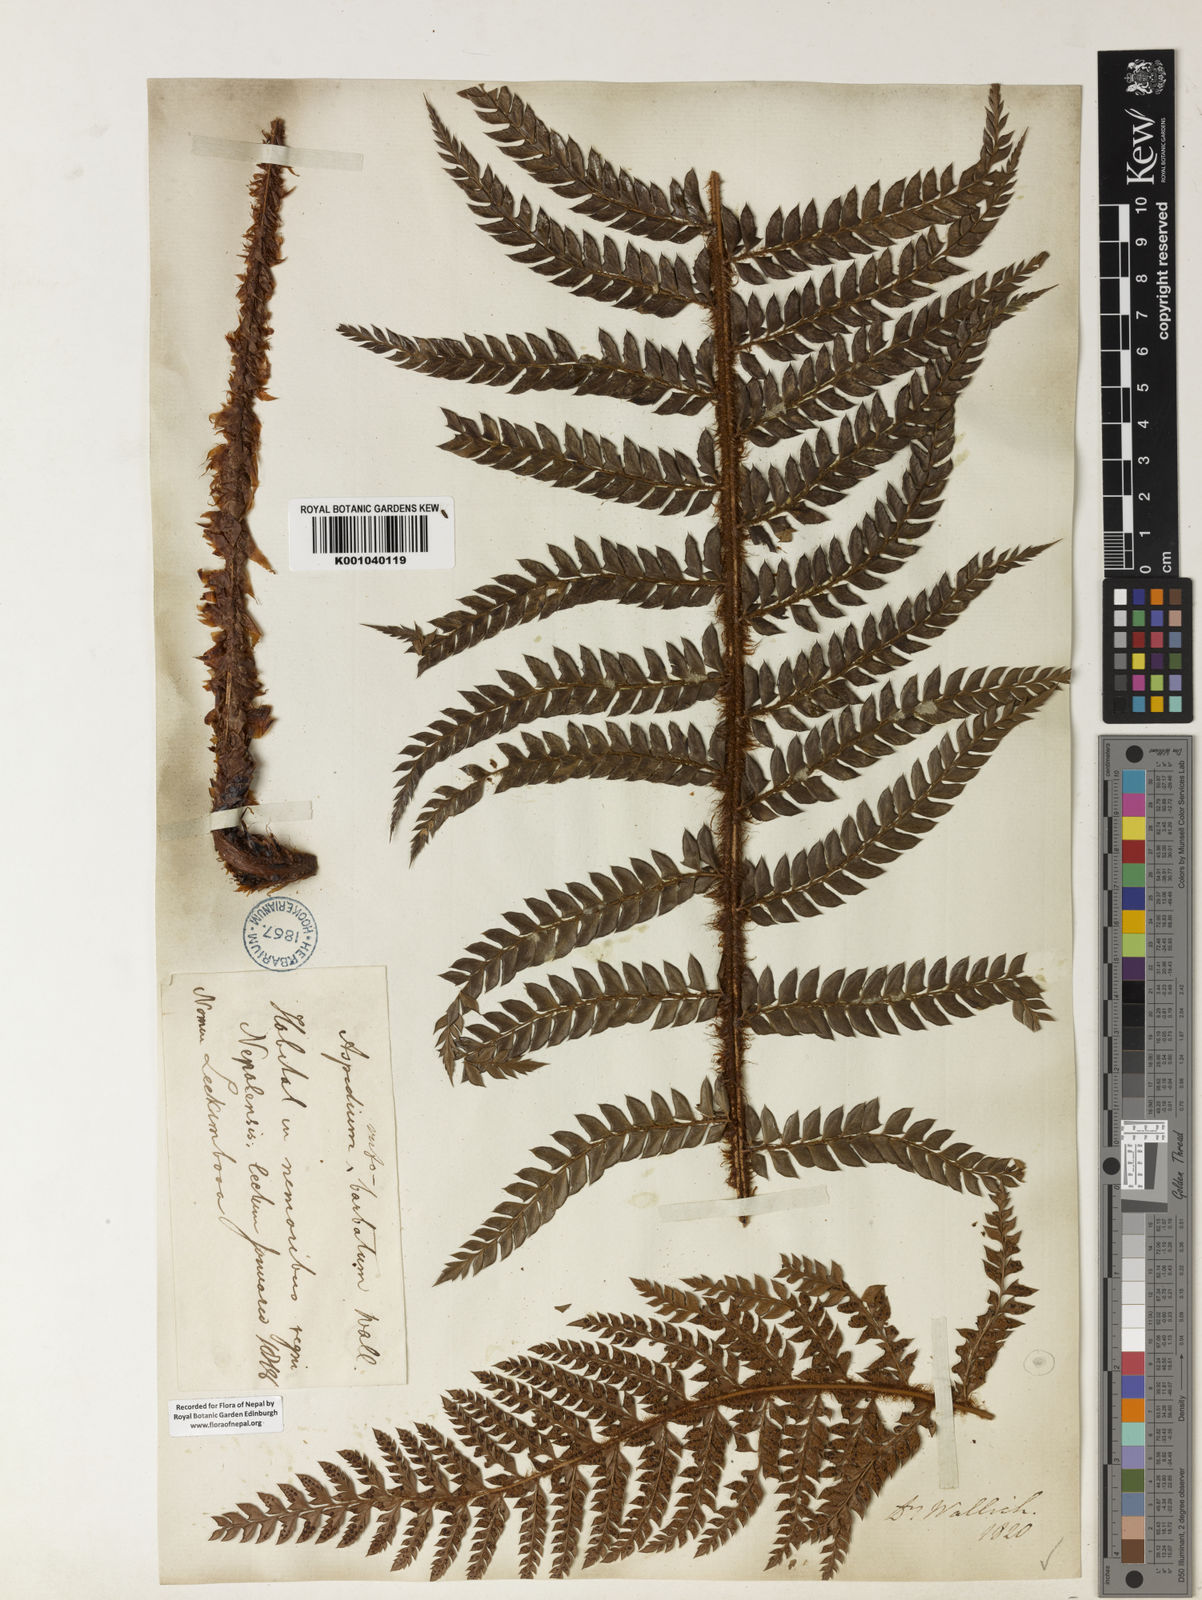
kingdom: Plantae
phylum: Tracheophyta
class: Polypodiopsida
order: Polypodiales
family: Dryopteridaceae
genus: Polystichum
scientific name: Polystichum
